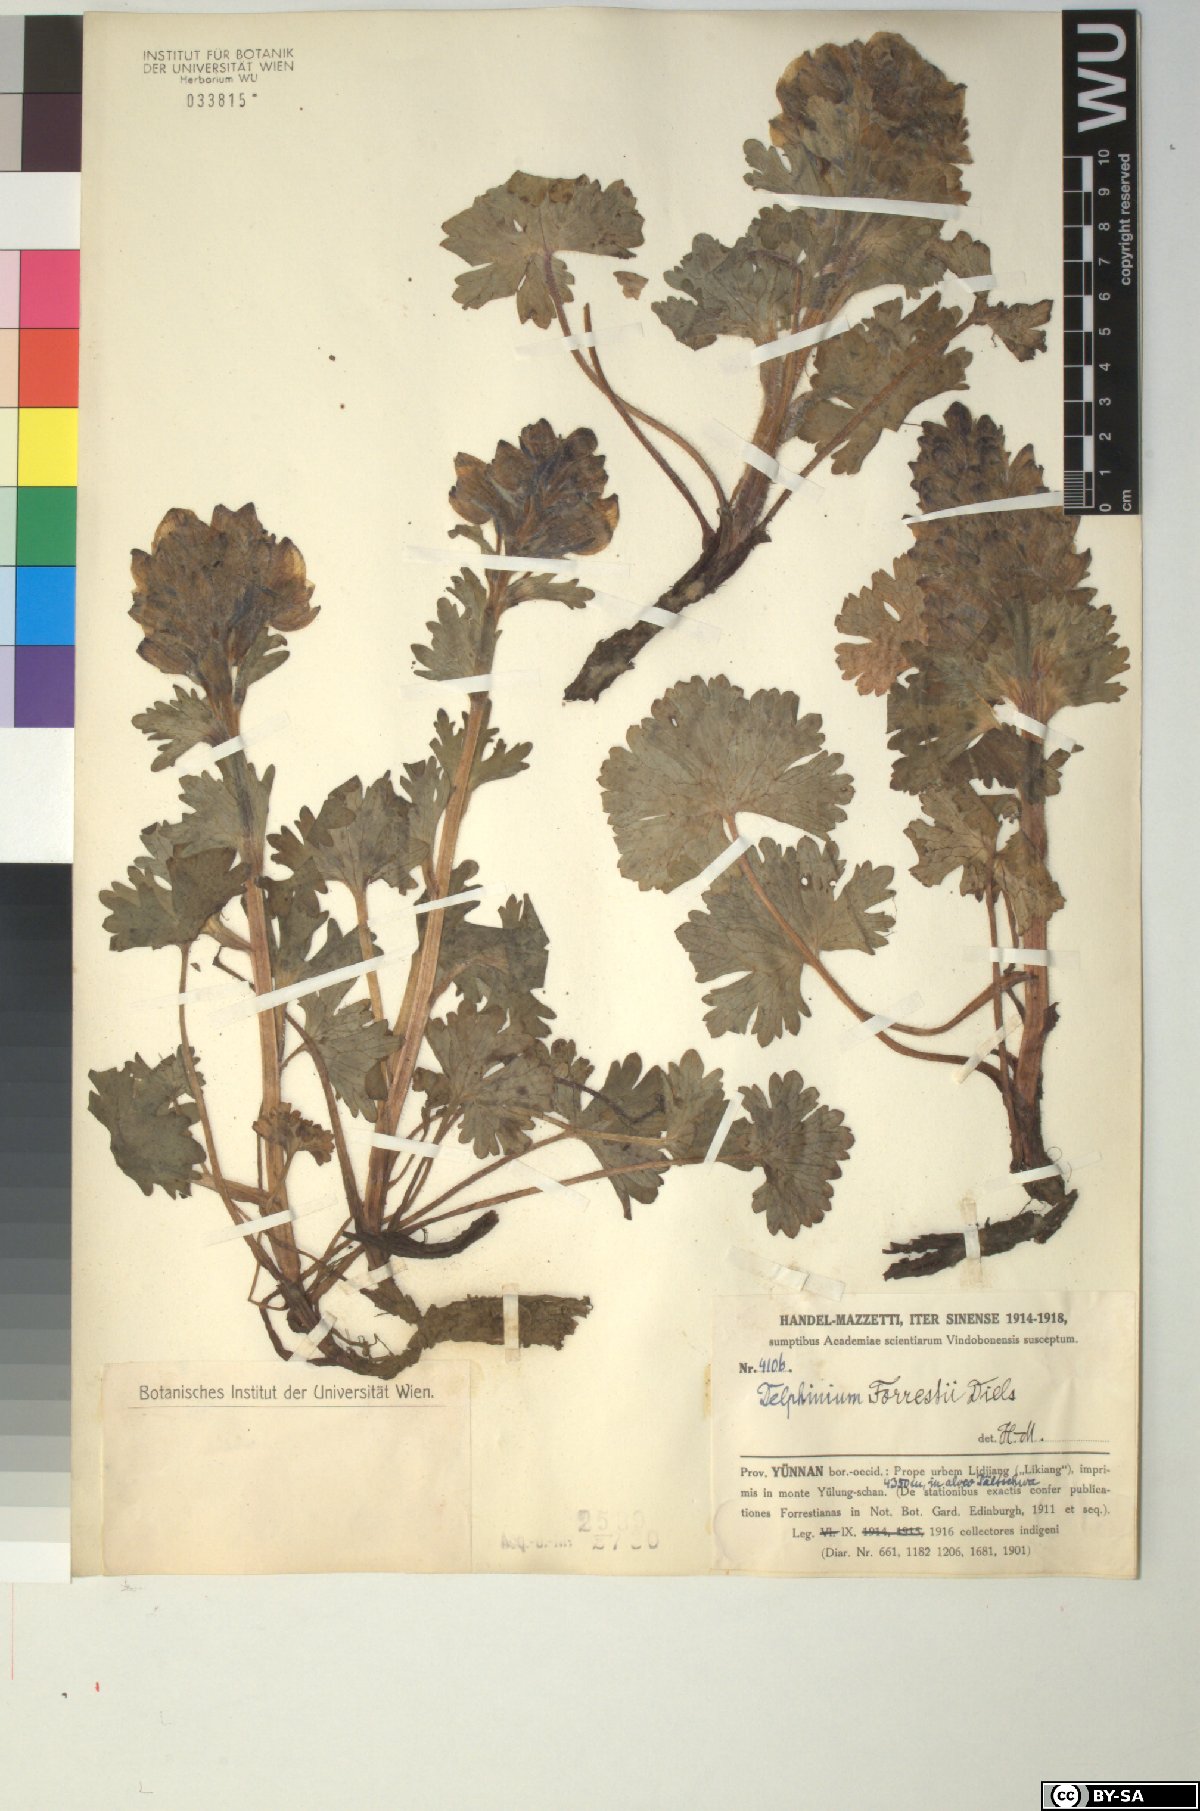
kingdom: Plantae
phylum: Tracheophyta
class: Magnoliopsida
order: Ranunculales
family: Ranunculaceae
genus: Delphinium
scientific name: Delphinium forrestii
